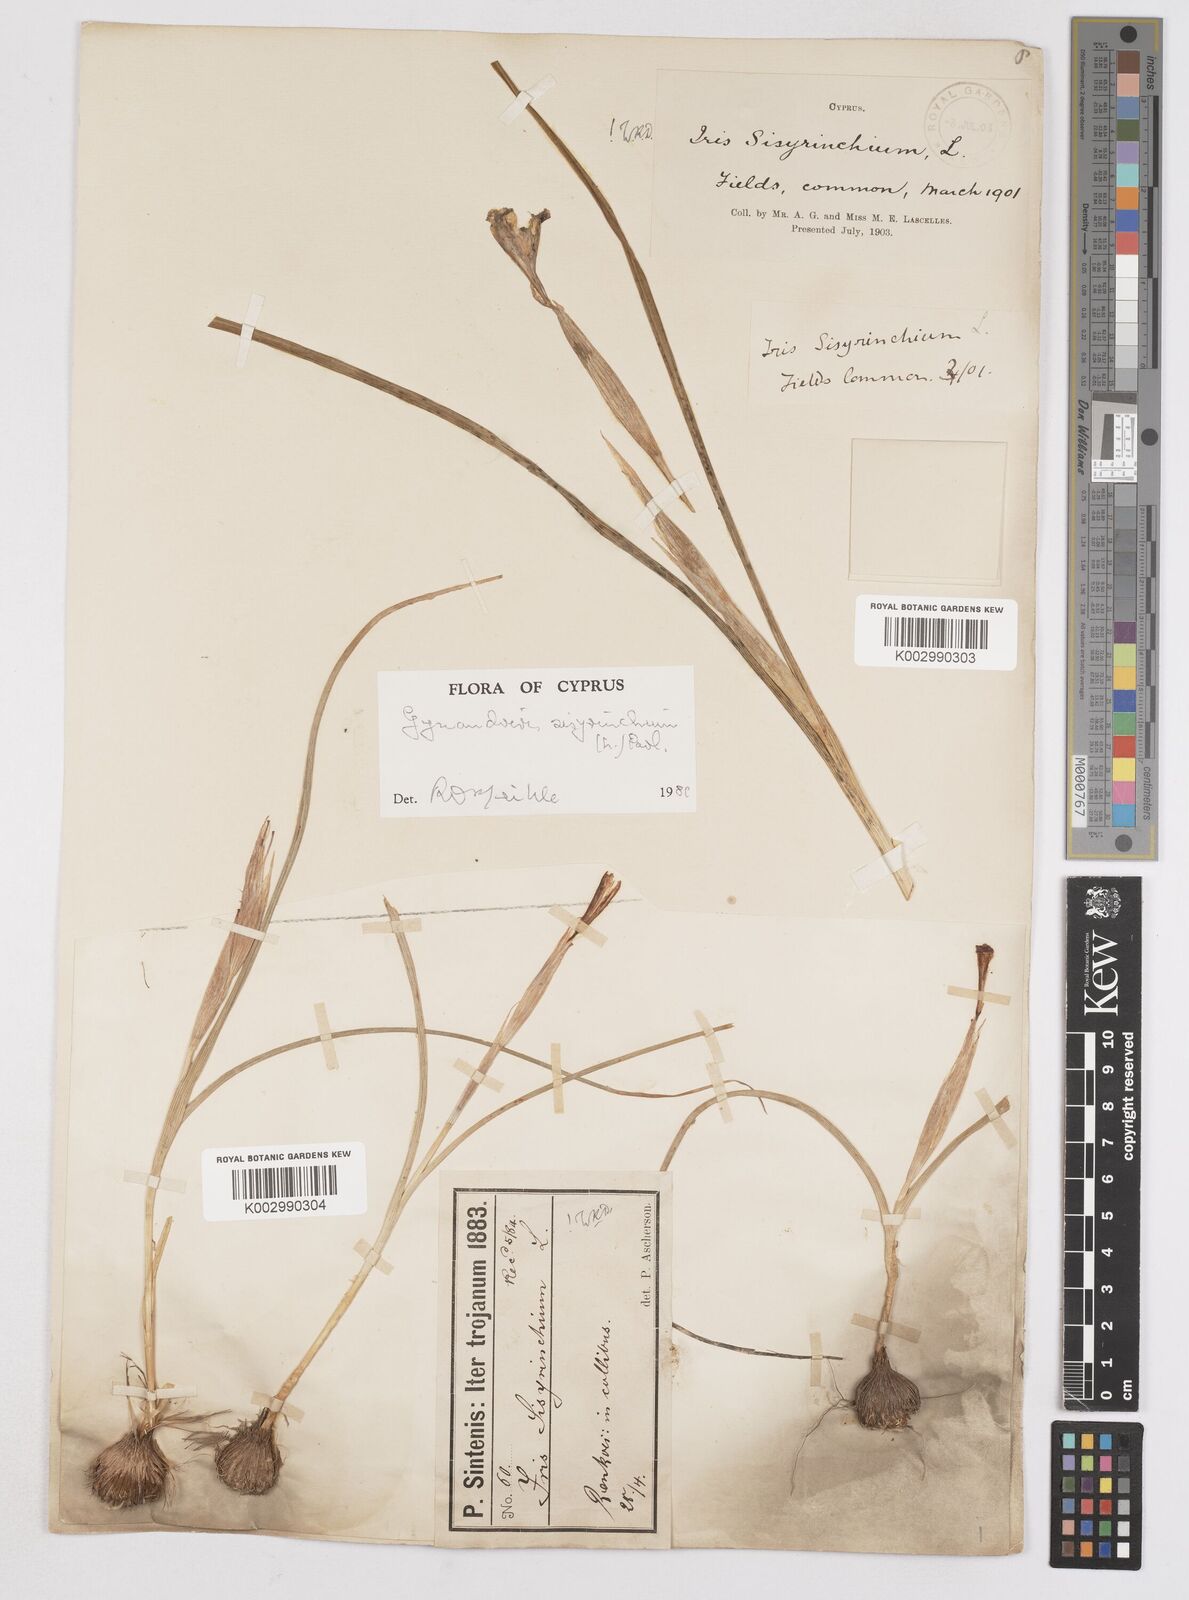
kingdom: Plantae
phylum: Tracheophyta
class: Liliopsida
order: Asparagales
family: Iridaceae
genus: Moraea
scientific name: Moraea sisyrinchium
